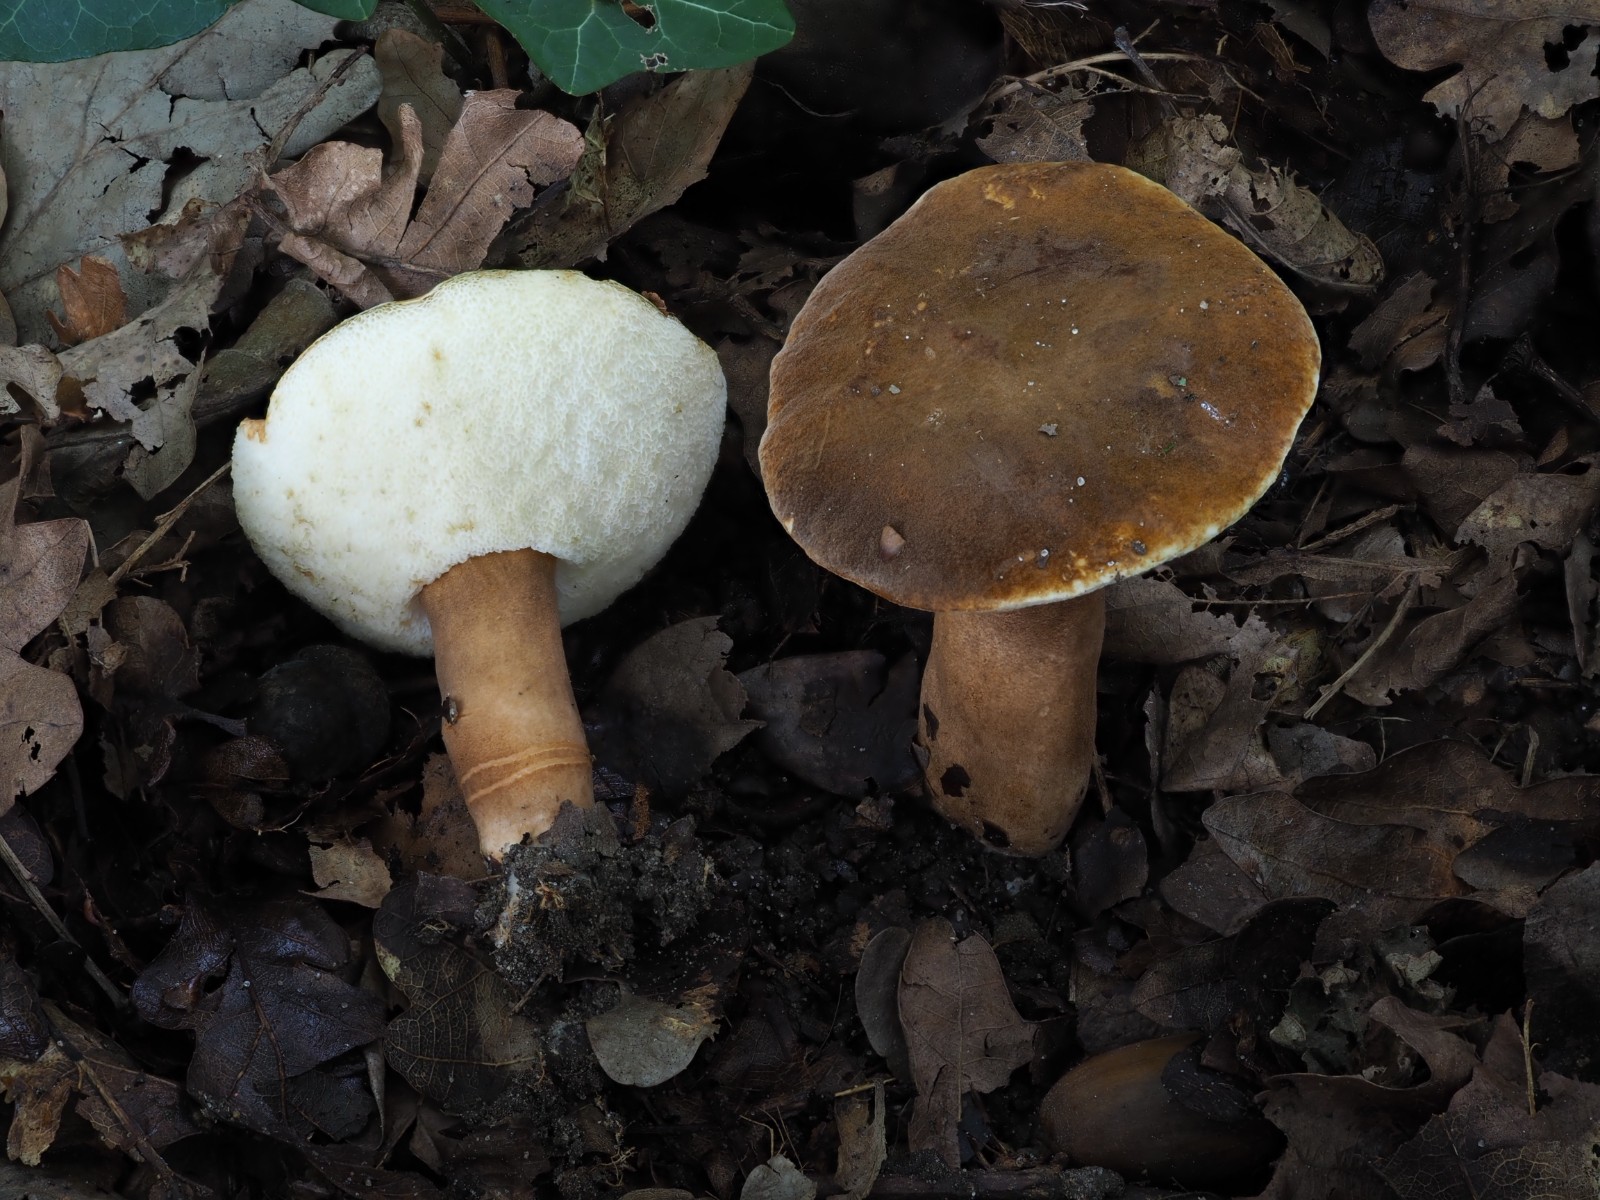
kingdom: Fungi
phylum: Basidiomycota
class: Agaricomycetes
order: Boletales
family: Gyroporaceae
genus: Gyroporus
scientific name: Gyroporus castaneus
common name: kastanie-kammerrørhat
